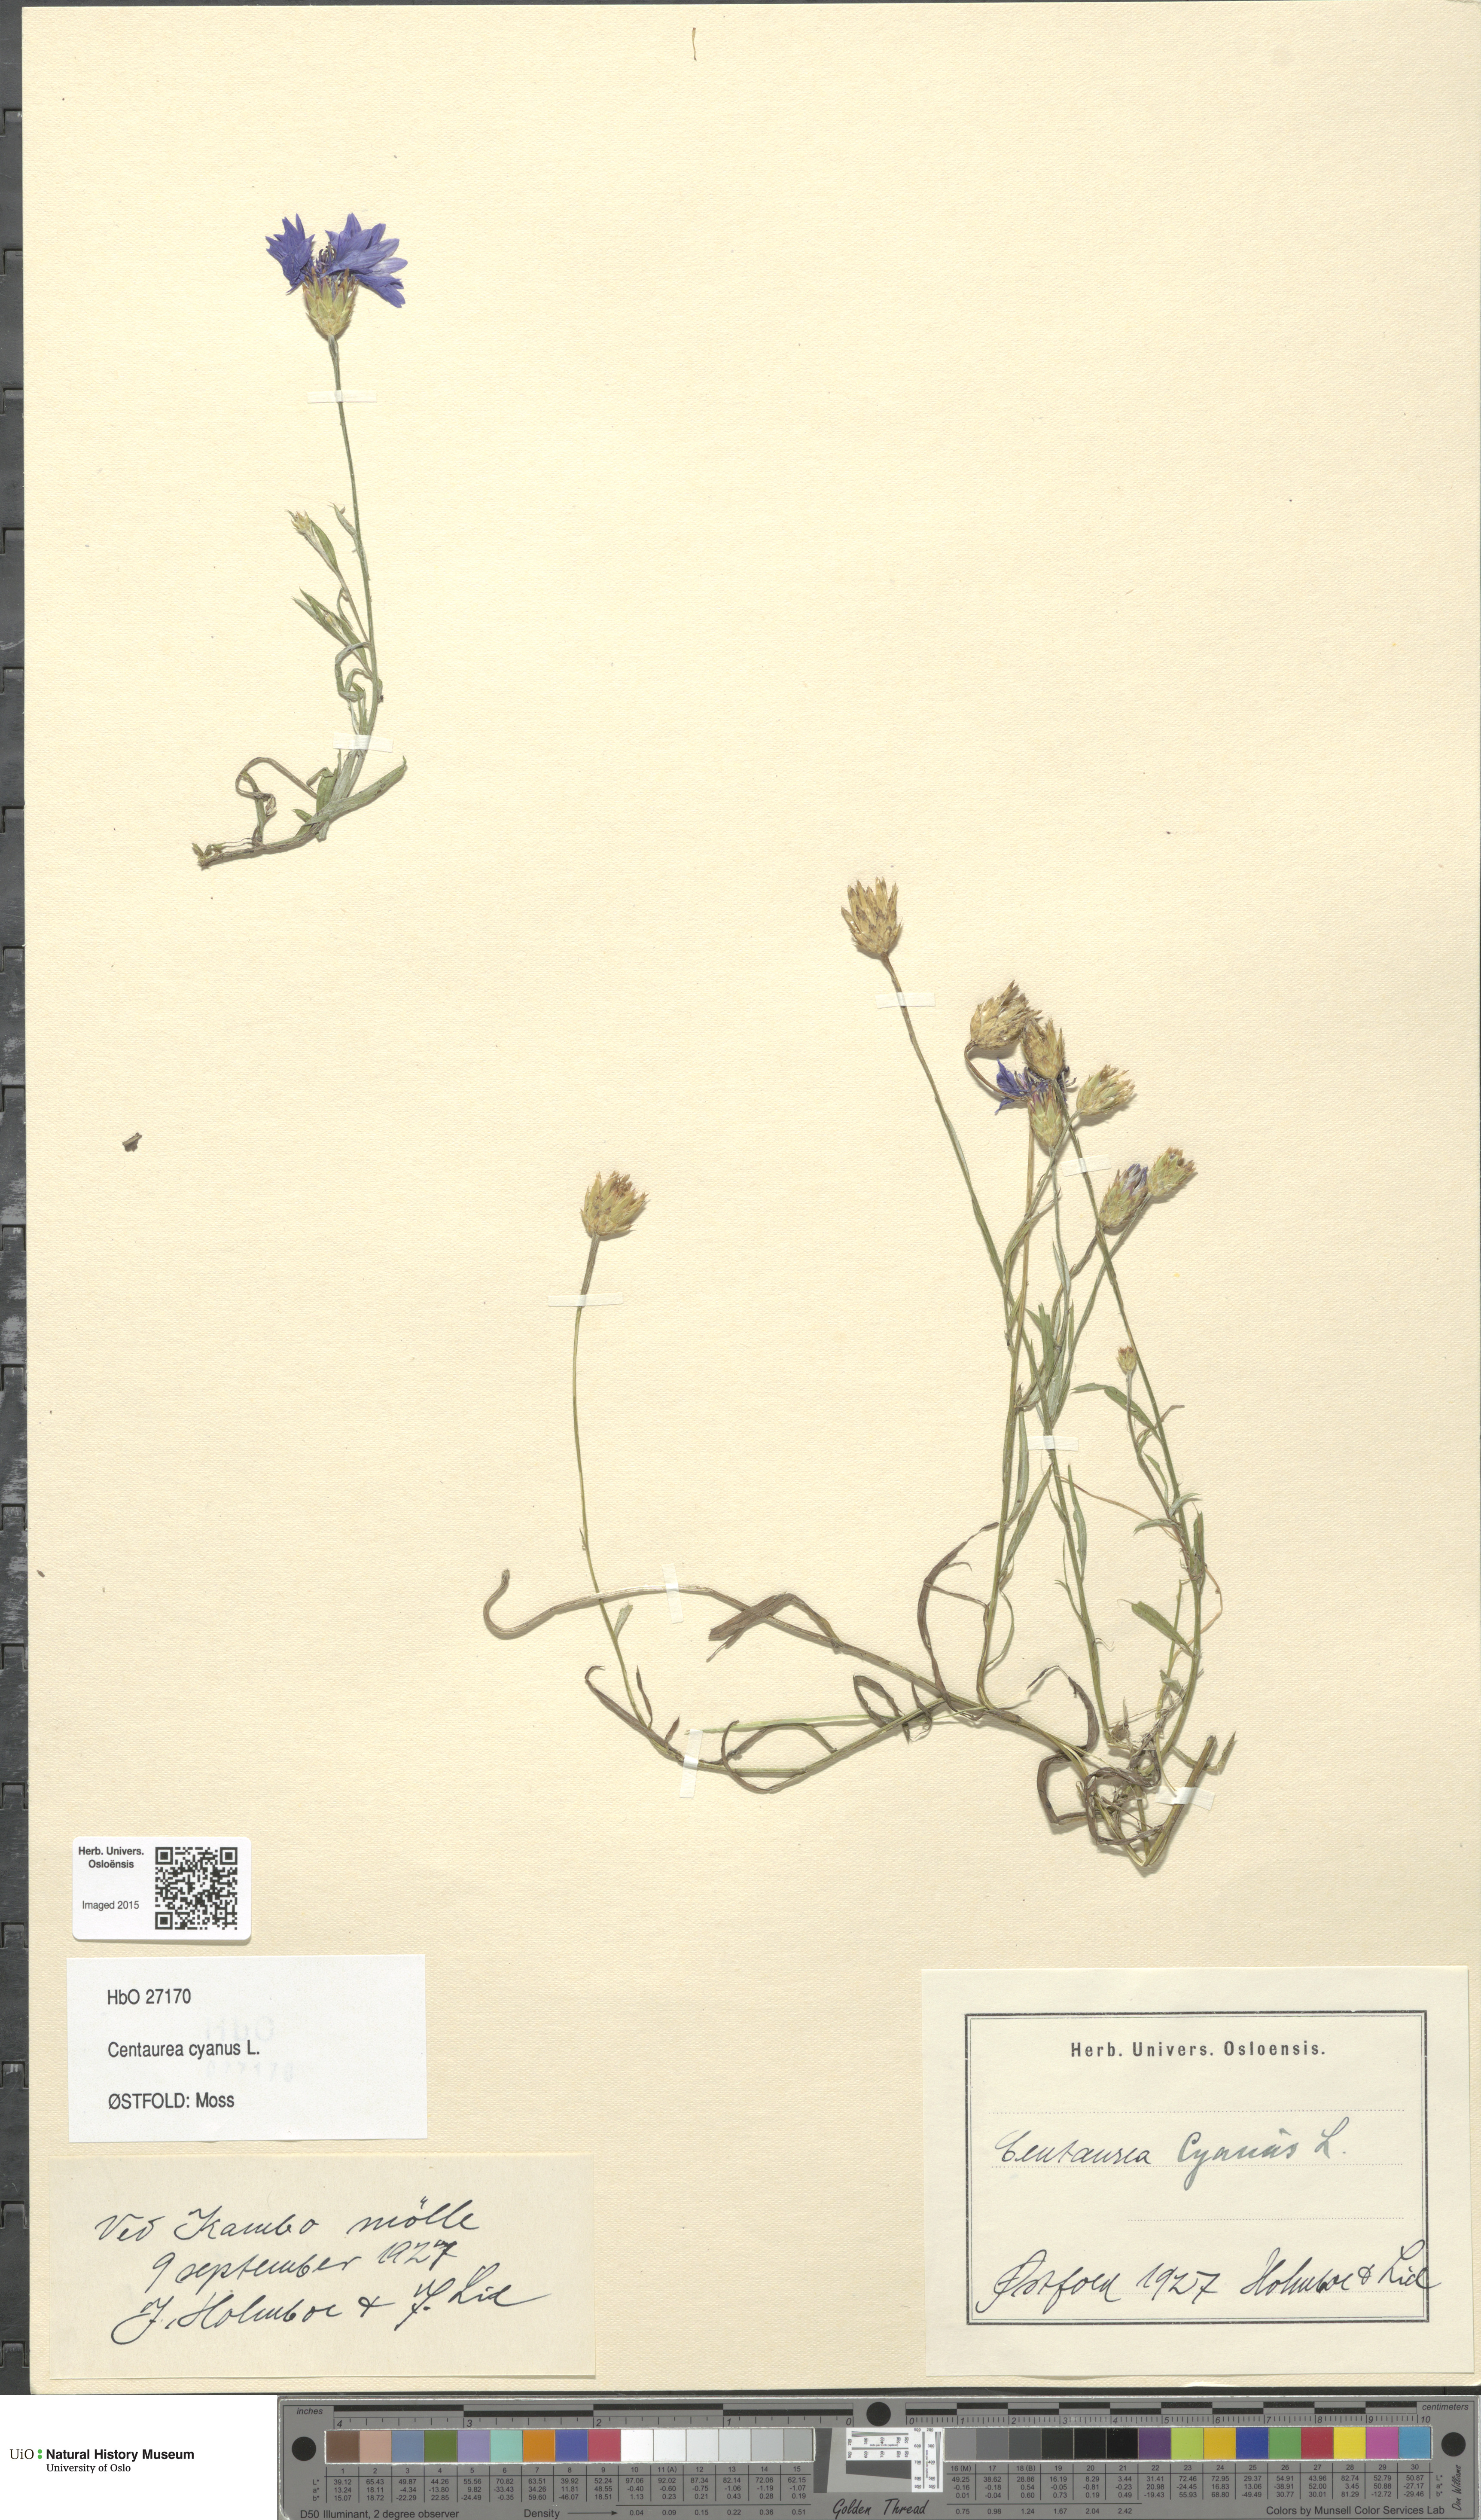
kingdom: Plantae
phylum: Tracheophyta
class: Magnoliopsida
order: Asterales
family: Asteraceae
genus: Centaurea
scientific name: Centaurea cyanus
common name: Cornflower
